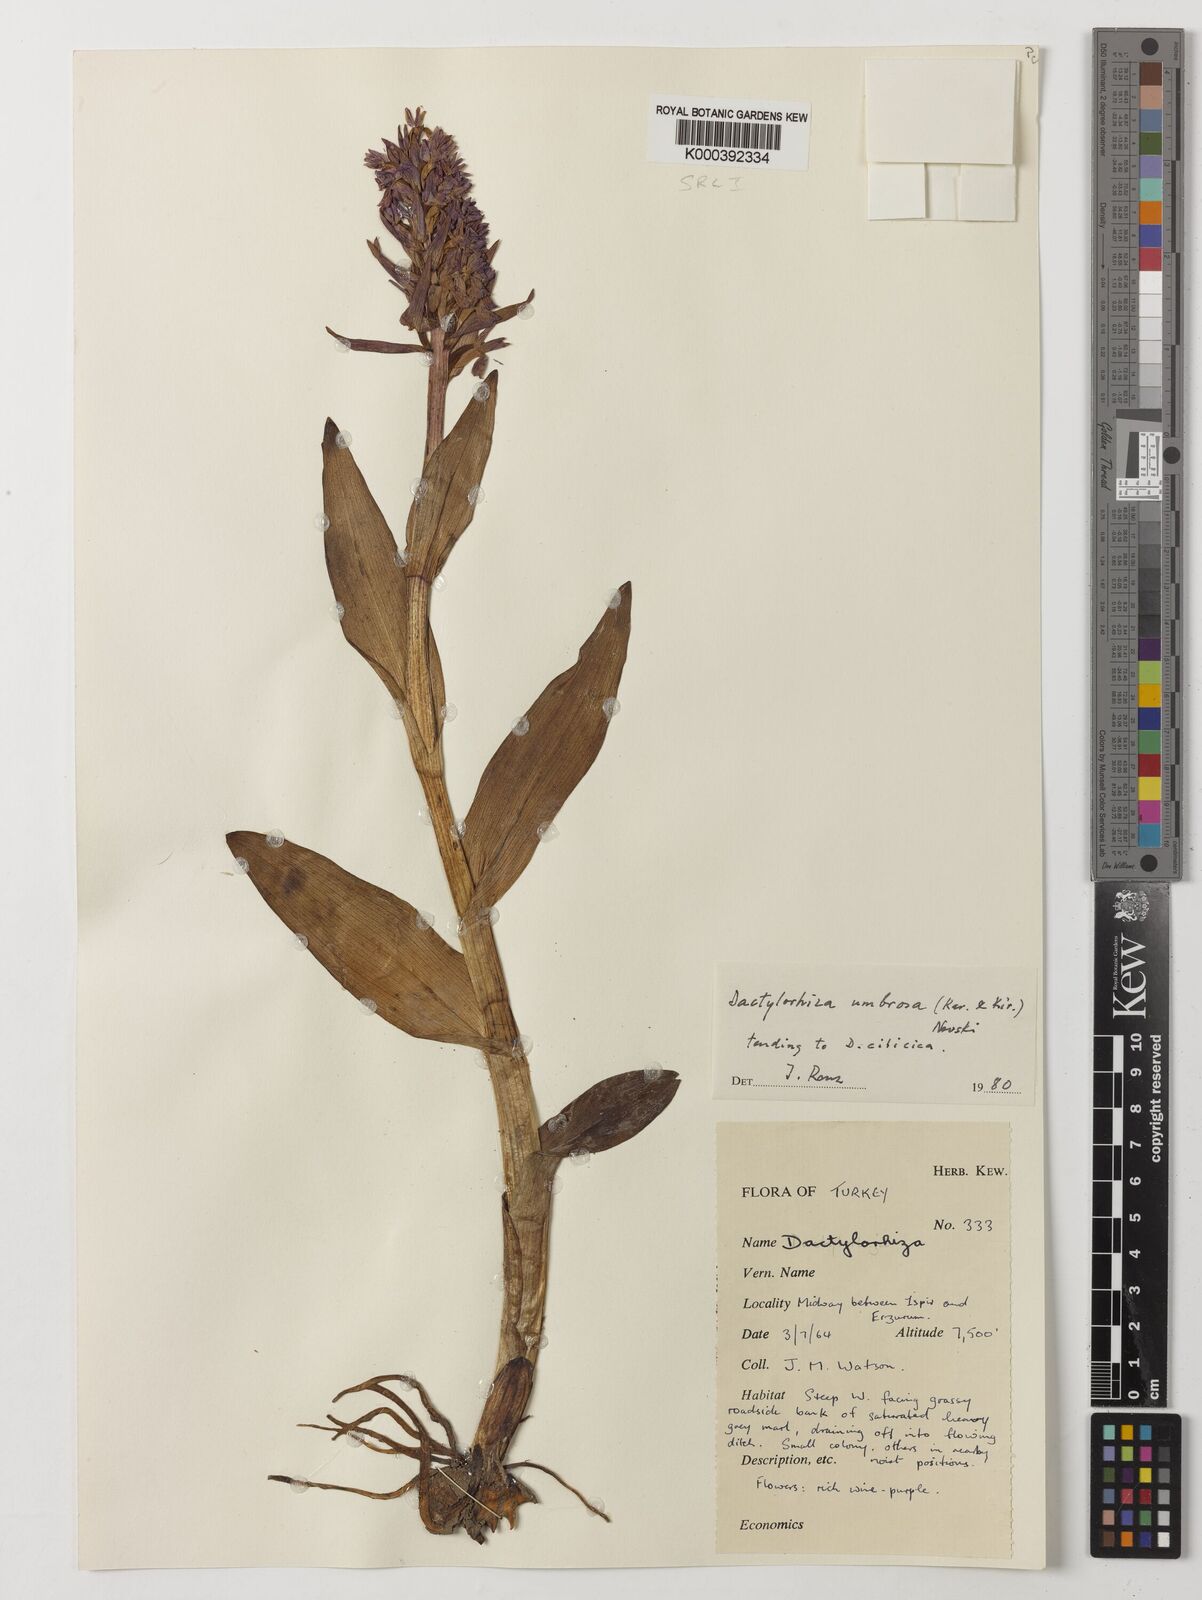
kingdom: Plantae
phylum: Tracheophyta
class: Liliopsida
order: Asparagales
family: Orchidaceae
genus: Dactylorhiza
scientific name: Dactylorhiza
